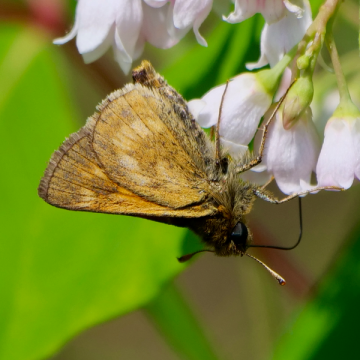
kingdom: Animalia
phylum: Arthropoda
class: Insecta
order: Lepidoptera
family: Hesperiidae
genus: Polites
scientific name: Polites
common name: Long Dash Skipper
